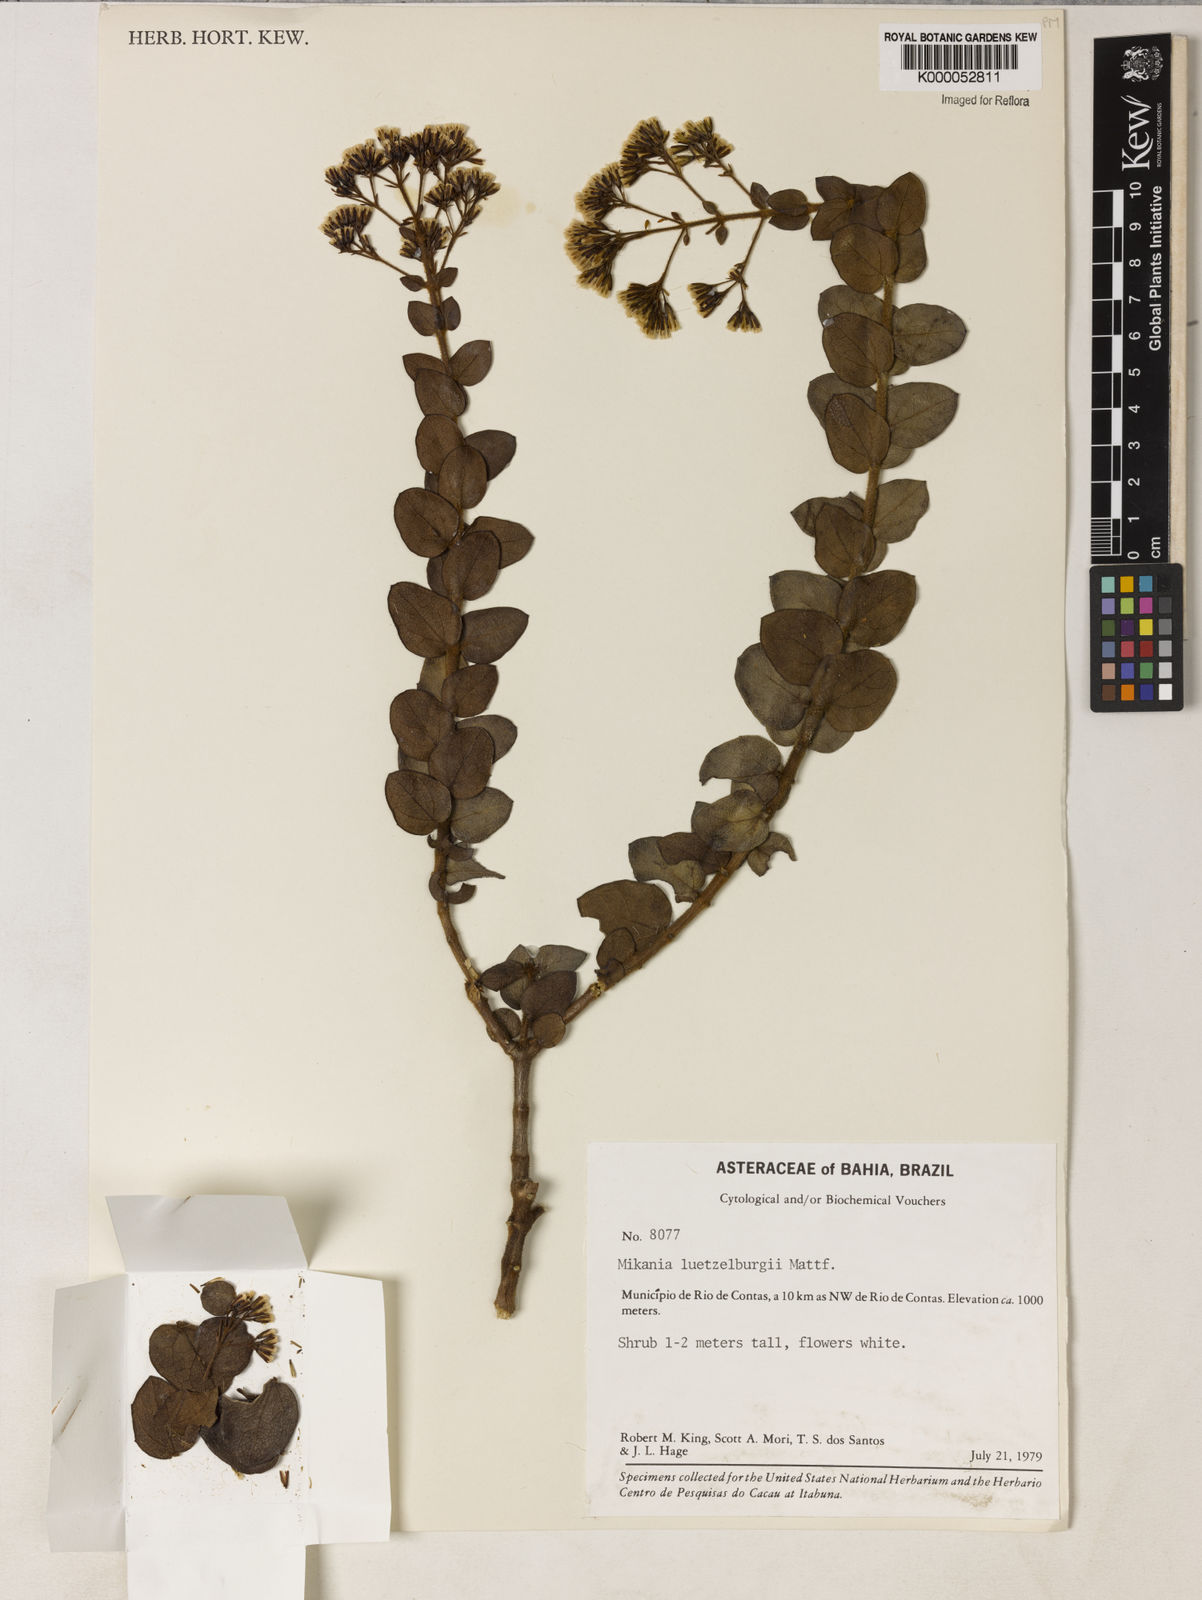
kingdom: Plantae
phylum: Tracheophyta
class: Magnoliopsida
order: Asterales
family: Asteraceae
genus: Mikania
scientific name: Mikania luetzelburgii
